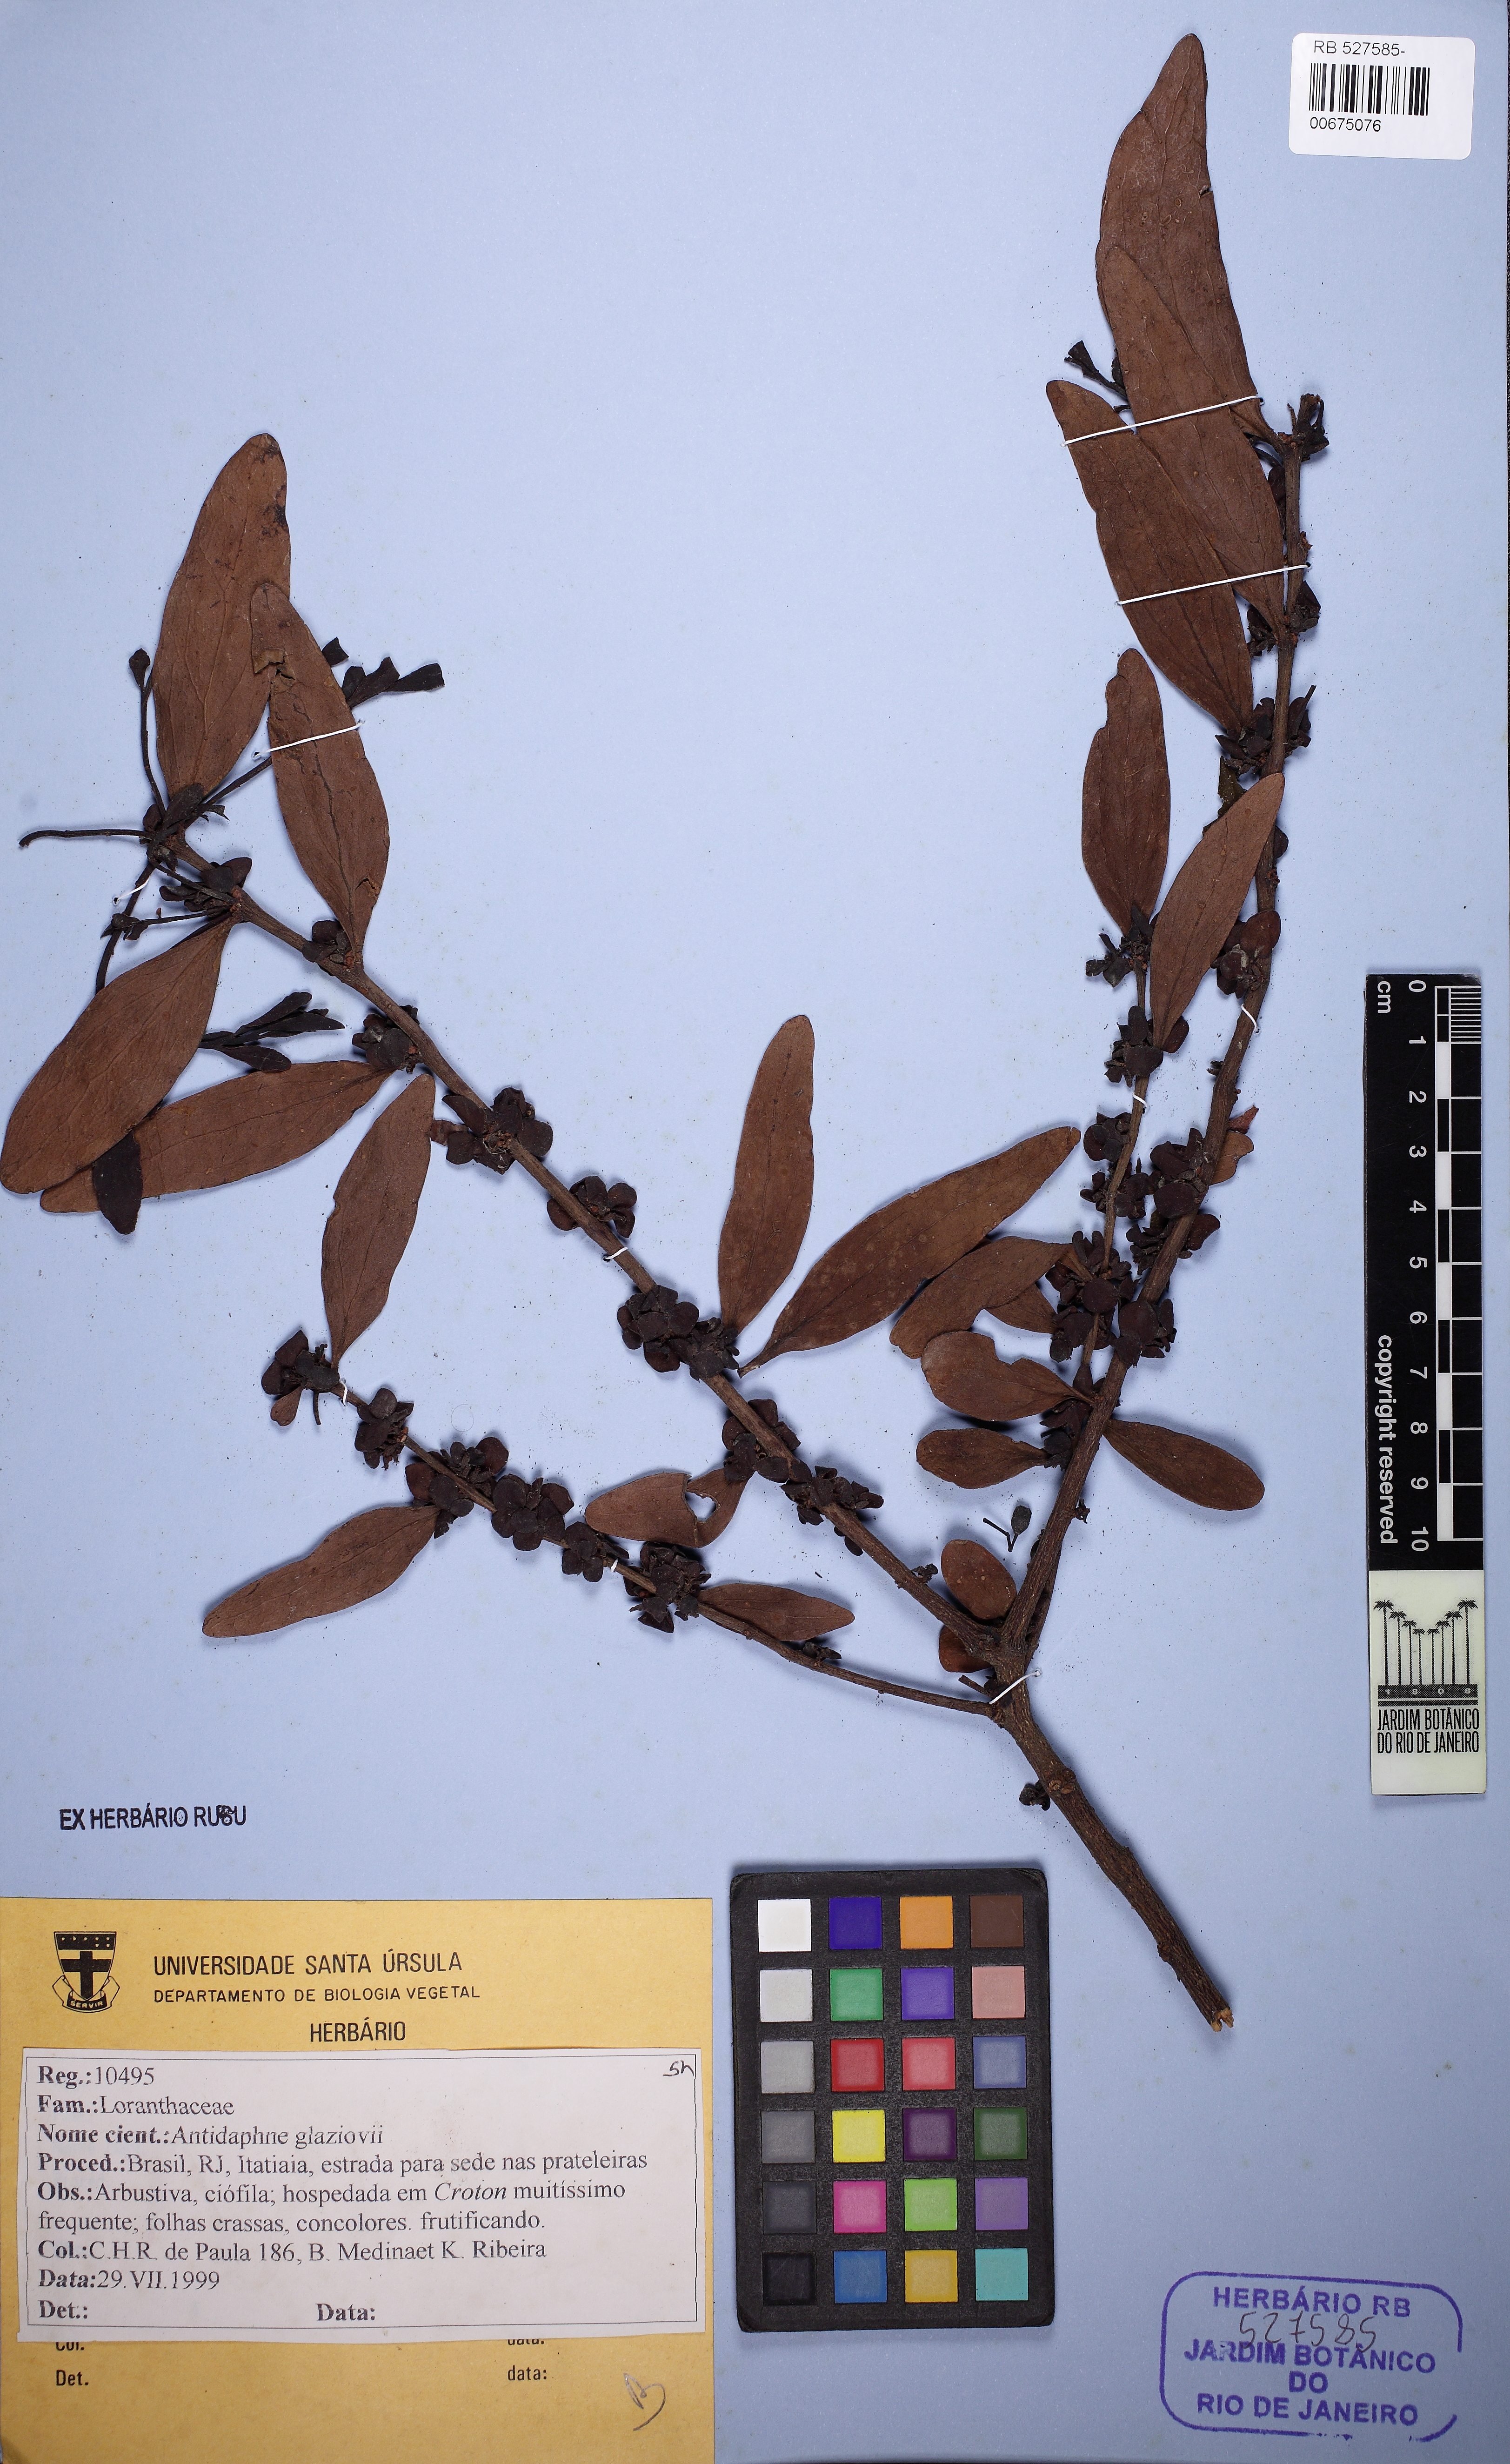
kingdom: Plantae
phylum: Tracheophyta
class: Magnoliopsida
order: Santalales
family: Santalaceae
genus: Antidaphne
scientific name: Antidaphne glaziovii
